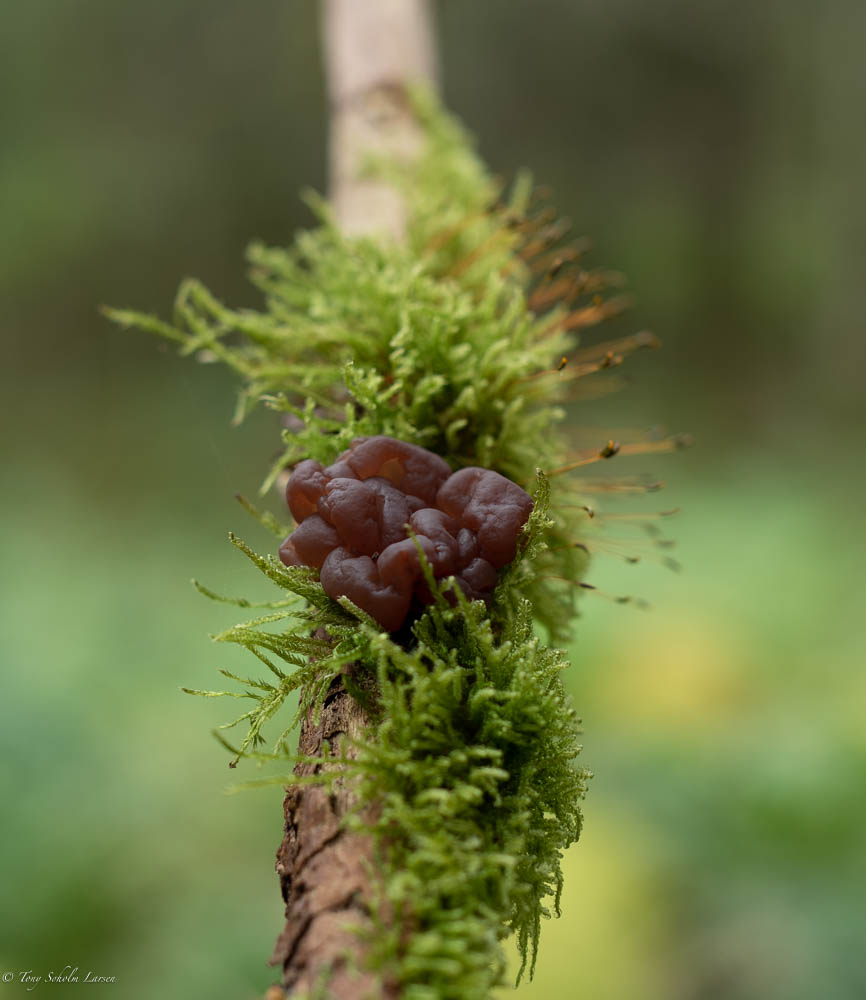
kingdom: Fungi
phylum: Ascomycota
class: Leotiomycetes
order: Helotiales
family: Gelatinodiscaceae
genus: Ascotremella
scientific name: Ascotremella faginea
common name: hjerne-bævreskive
